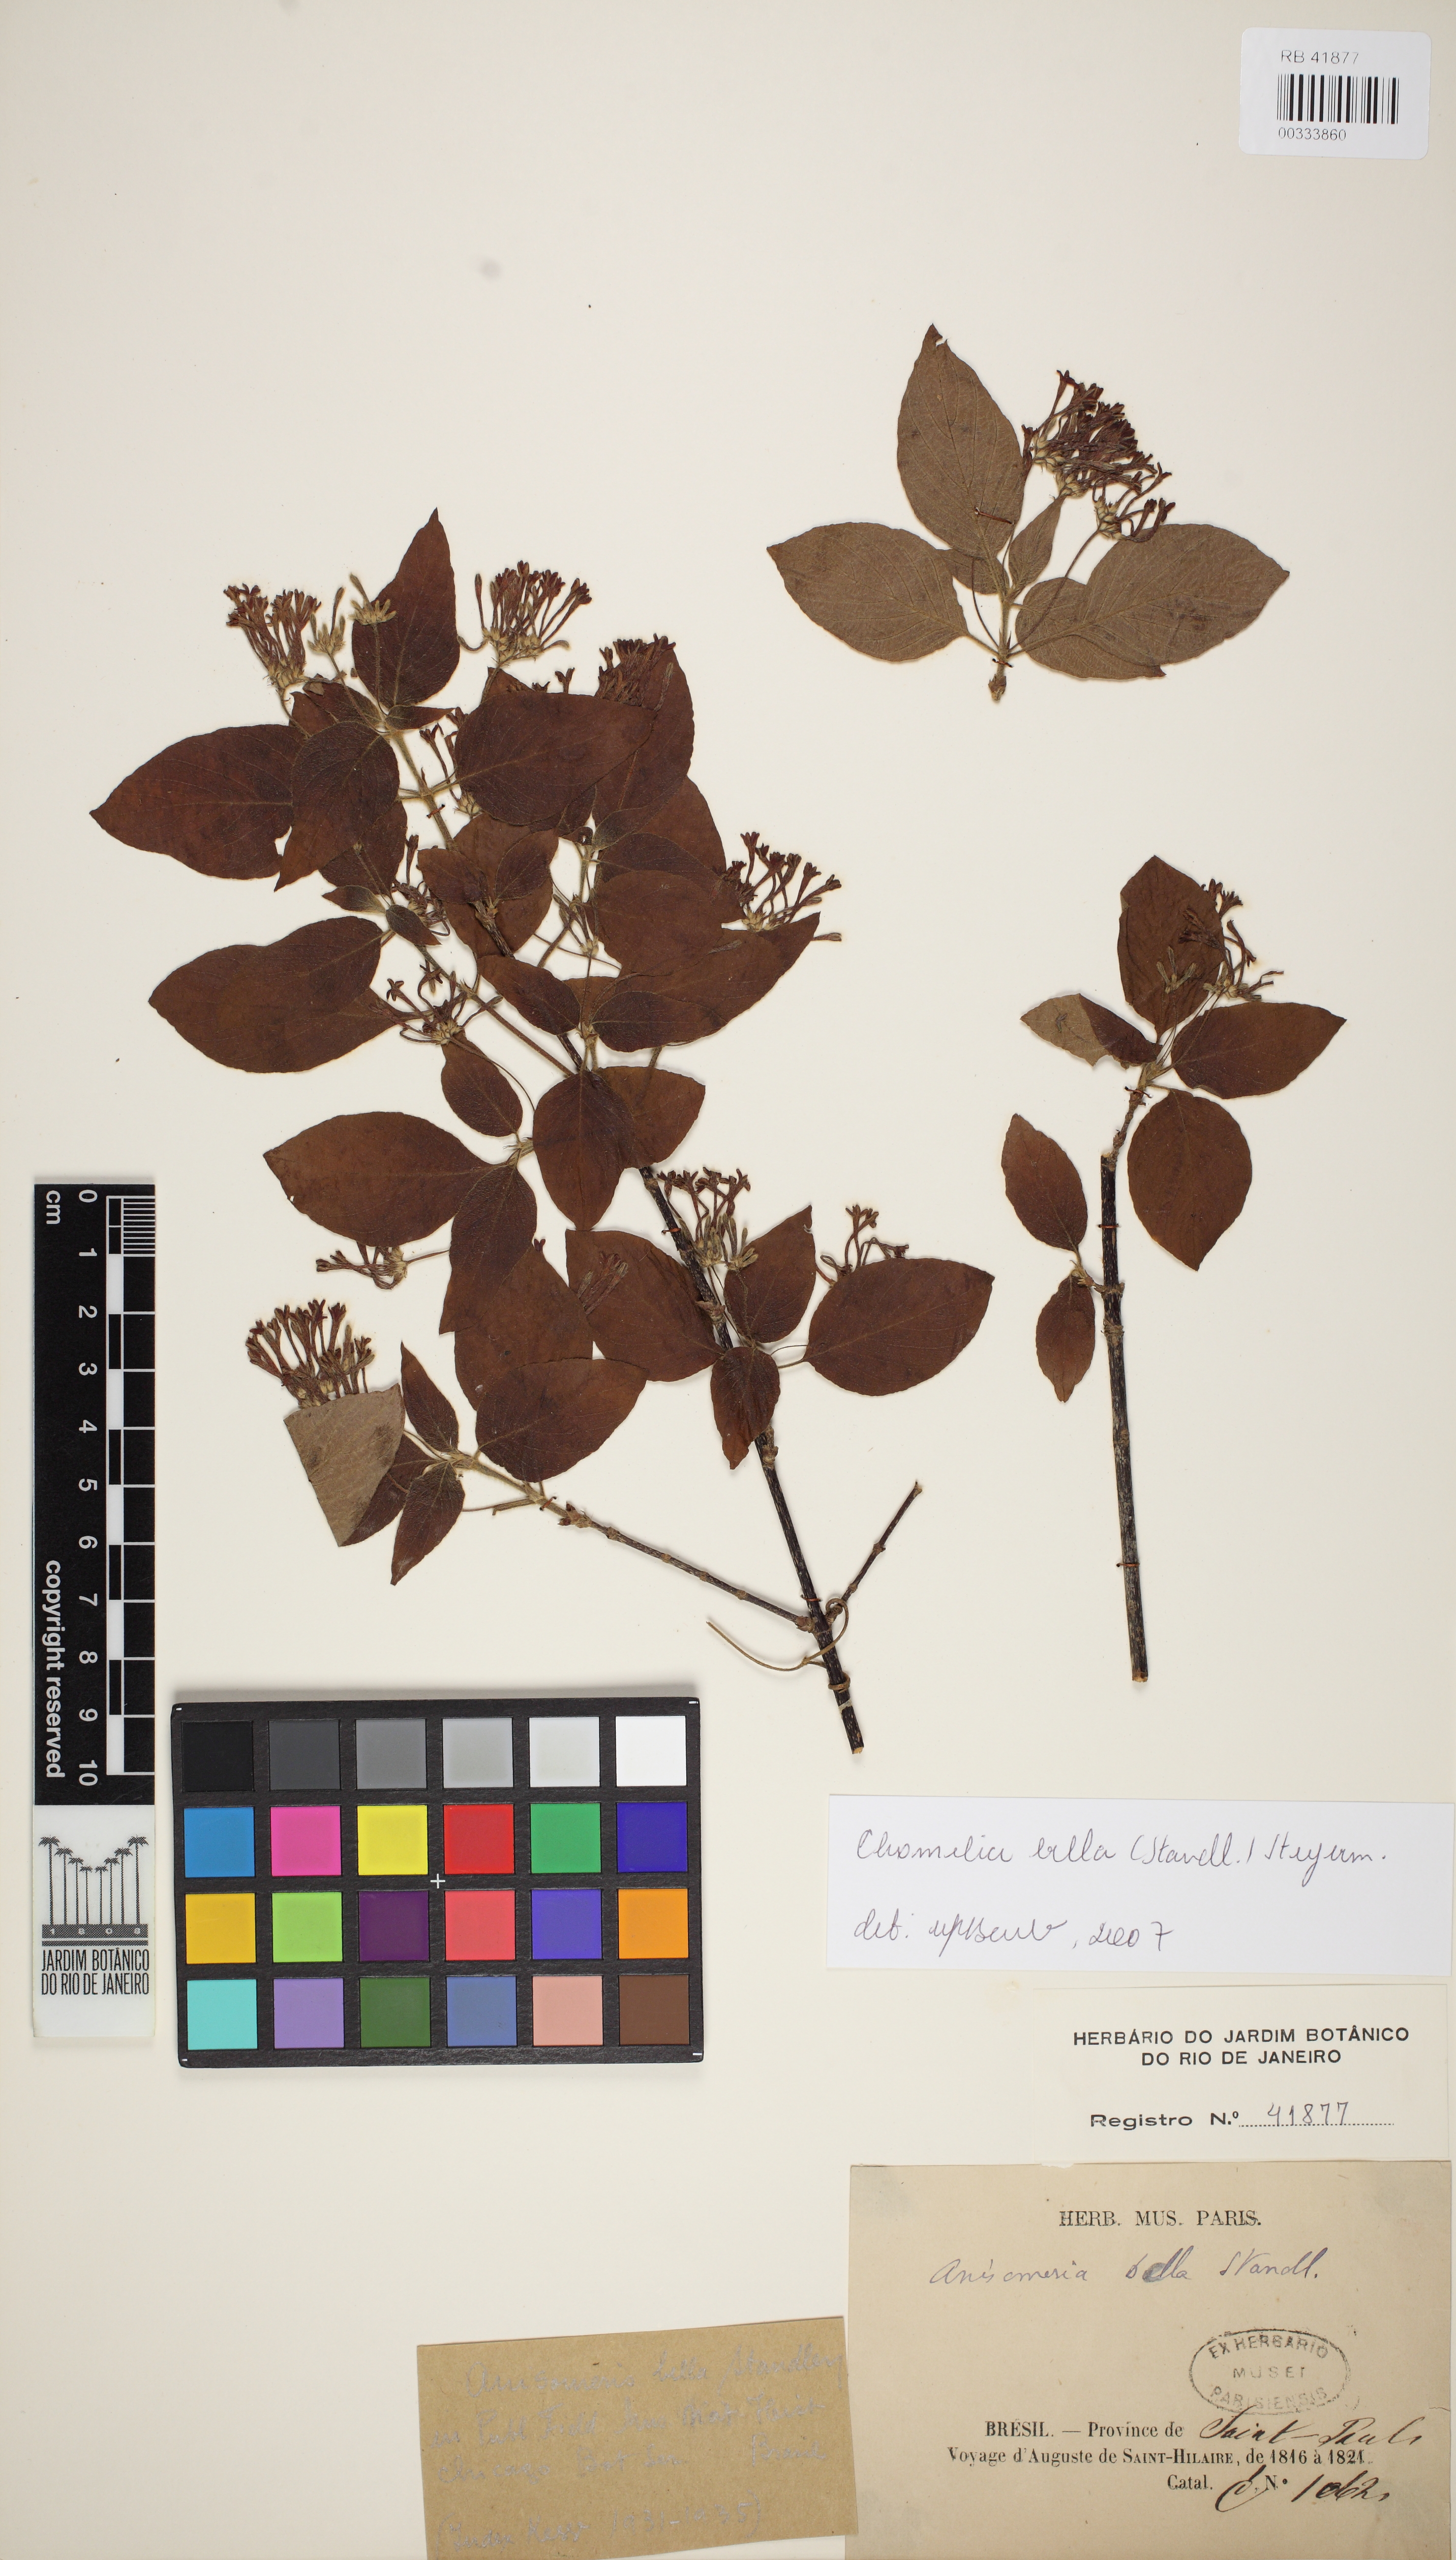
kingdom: Plantae
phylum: Tracheophyta
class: Magnoliopsida
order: Gentianales
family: Rubiaceae
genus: Chomelia
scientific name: Chomelia bella
